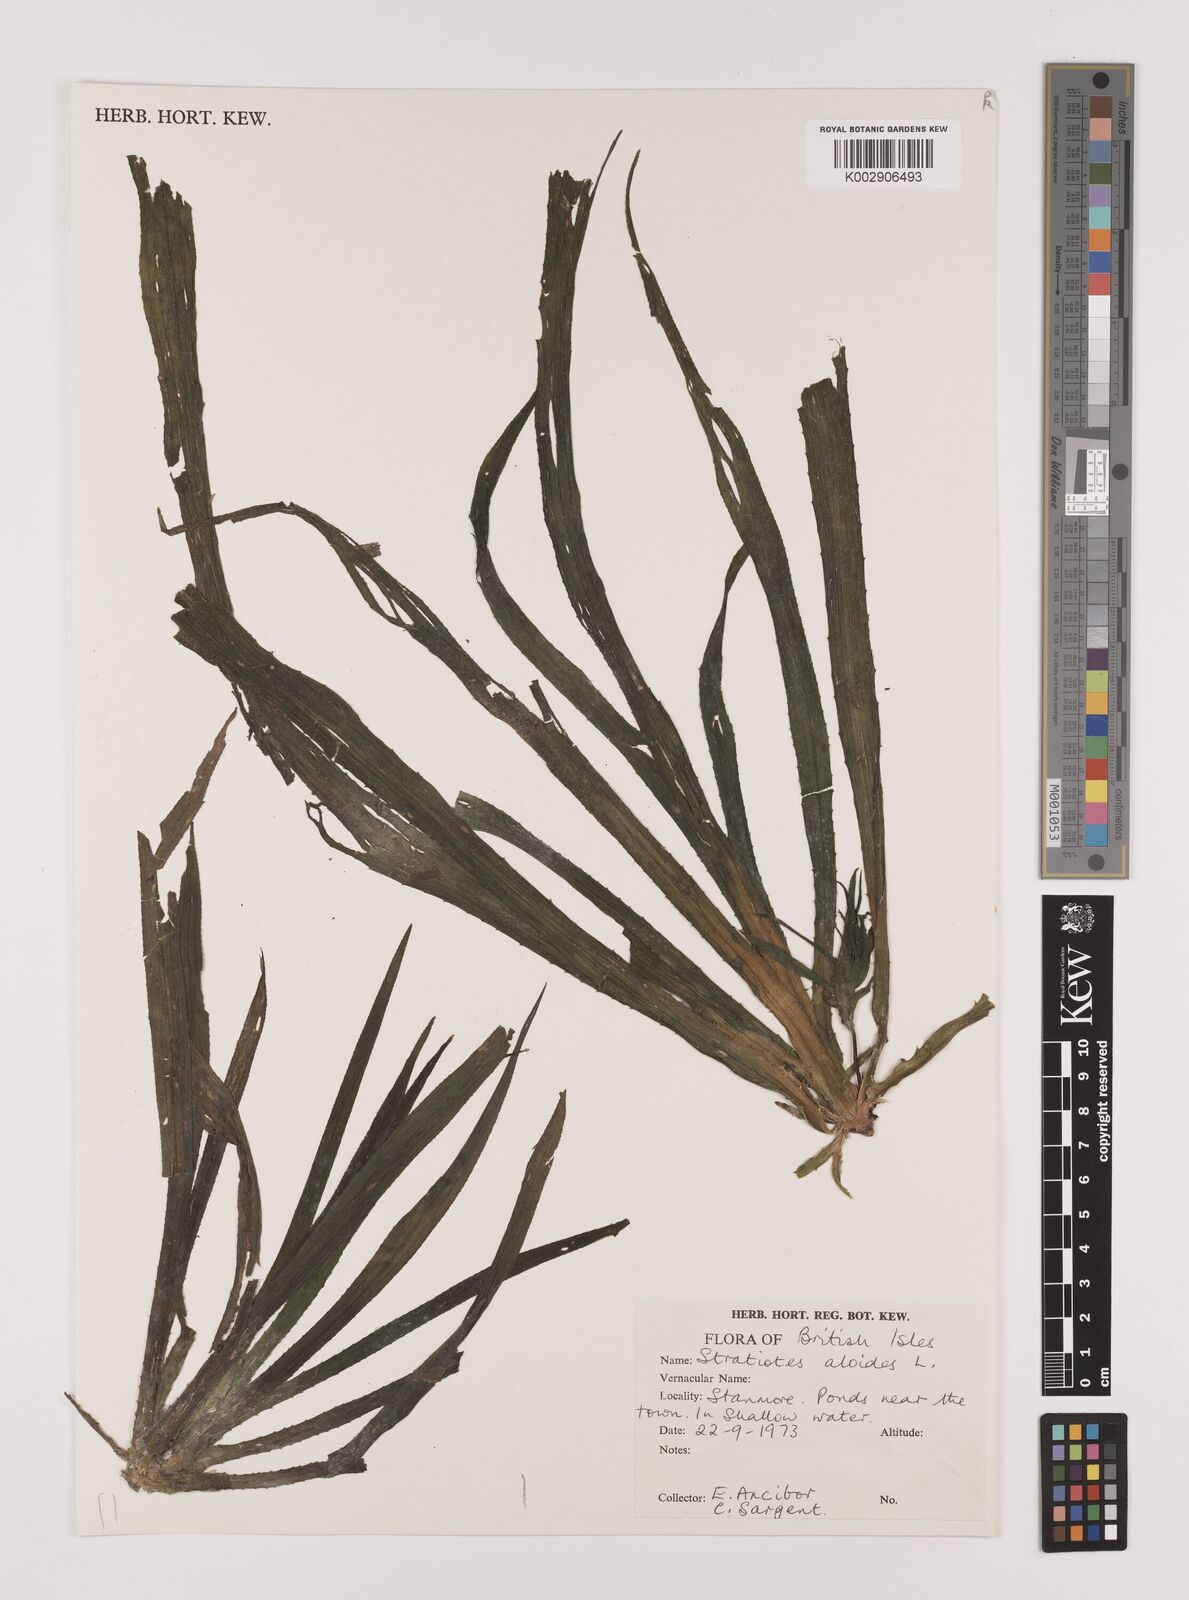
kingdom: Plantae
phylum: Tracheophyta
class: Liliopsida
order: Alismatales
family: Hydrocharitaceae
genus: Stratiotes
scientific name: Stratiotes aloides
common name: Water-soldier
